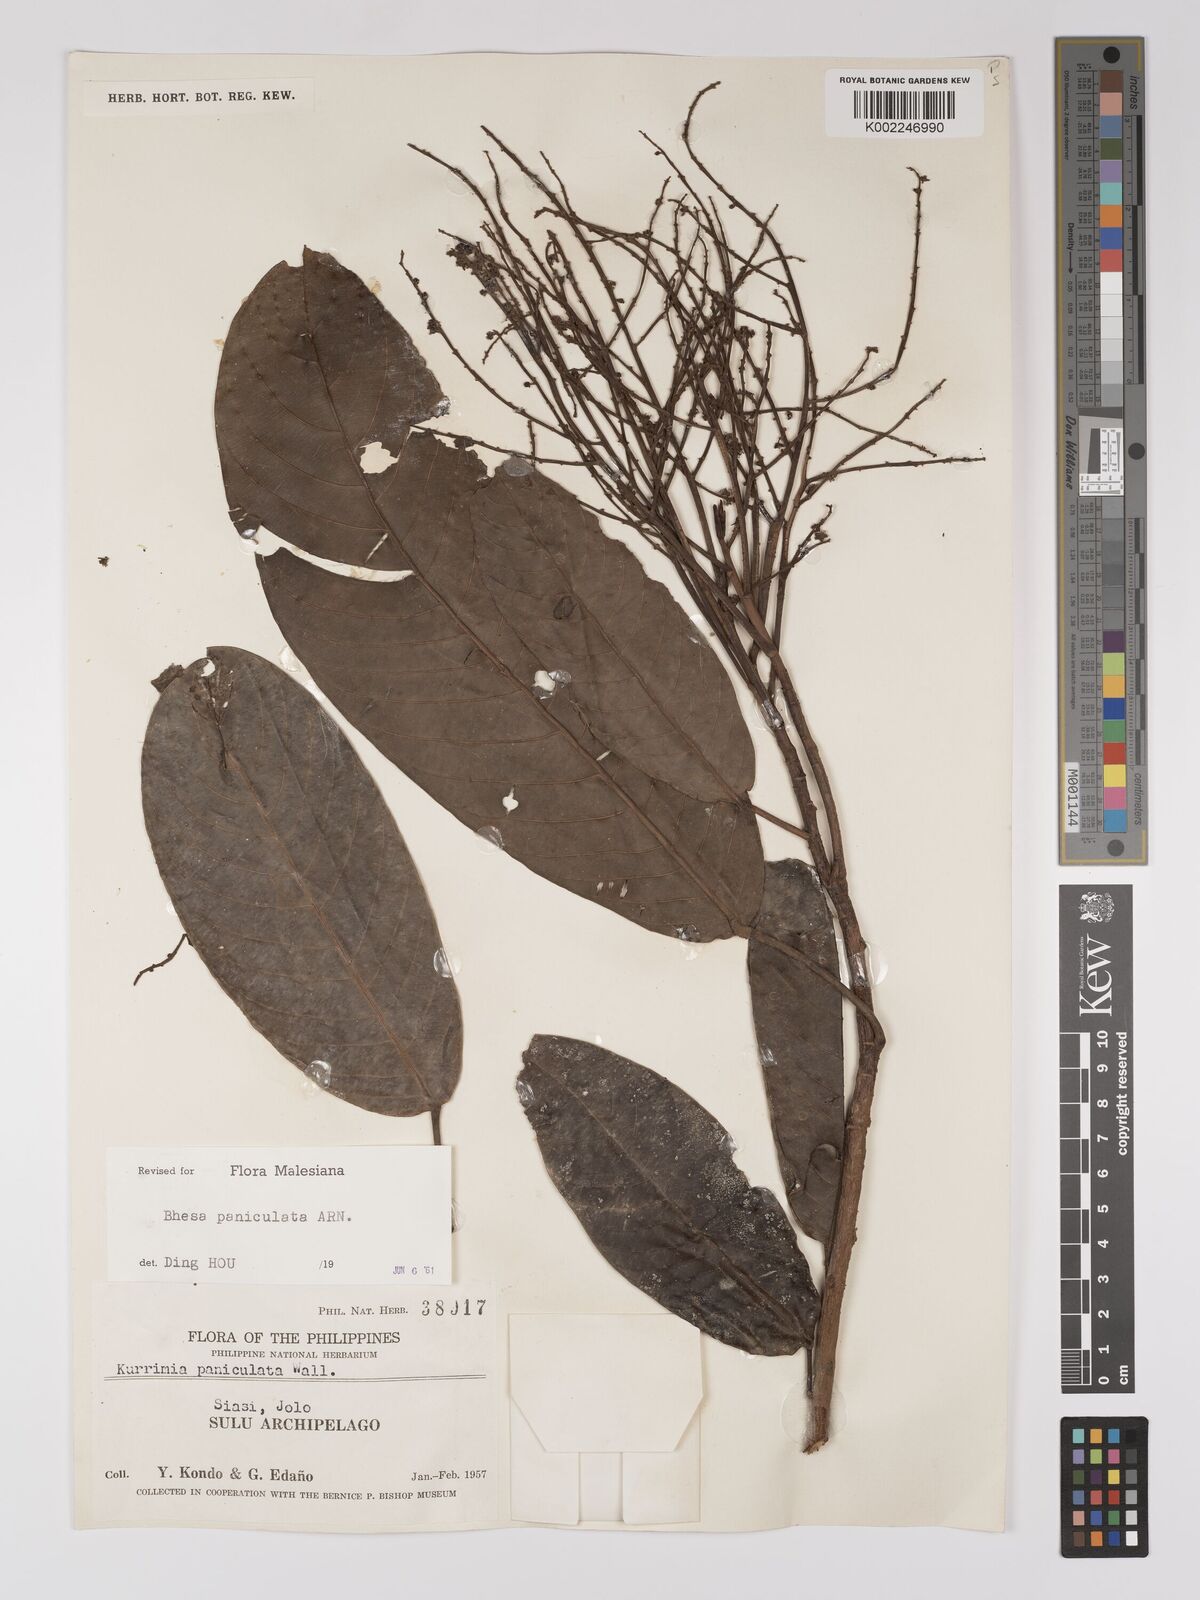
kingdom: Plantae
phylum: Tracheophyta
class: Magnoliopsida
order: Malpighiales
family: Centroplacaceae
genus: Bhesa
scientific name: Bhesa paniculata
